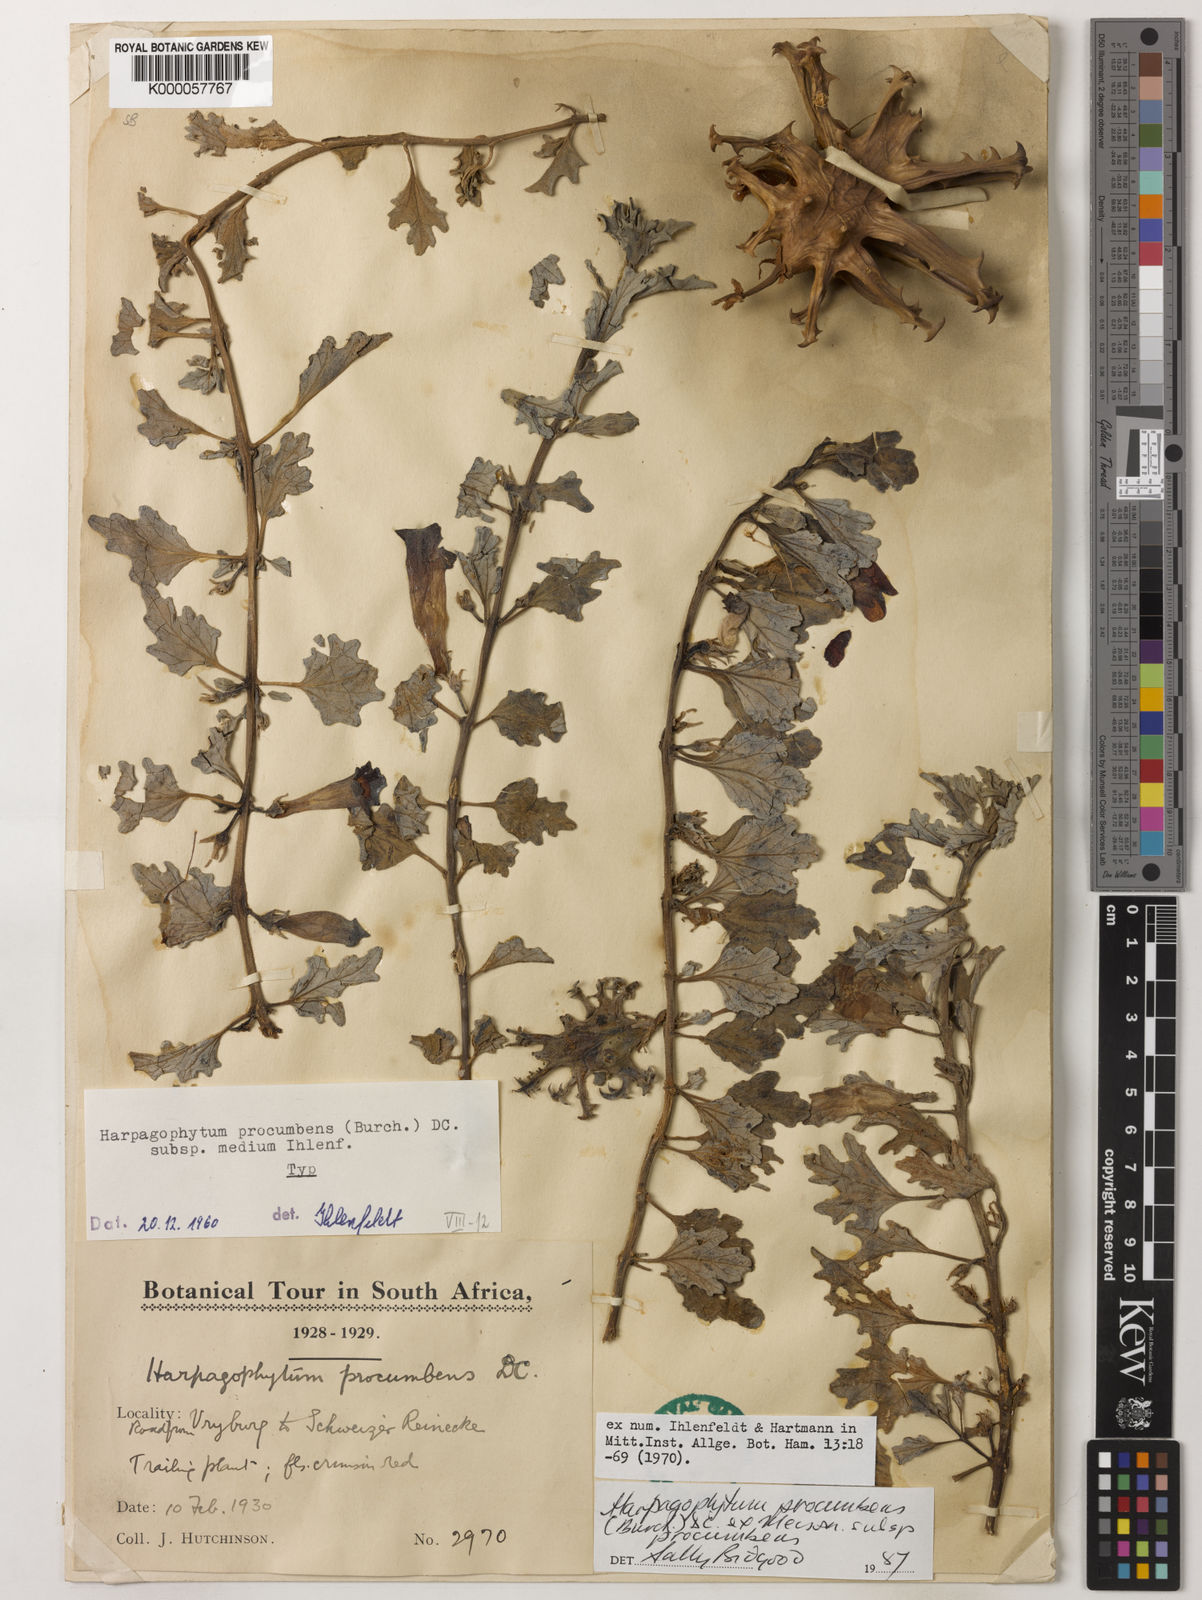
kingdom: Plantae
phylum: Tracheophyta
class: Magnoliopsida
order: Lamiales
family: Pedaliaceae
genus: Harpagophytum
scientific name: Harpagophytum procumbens
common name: Grappleplant
